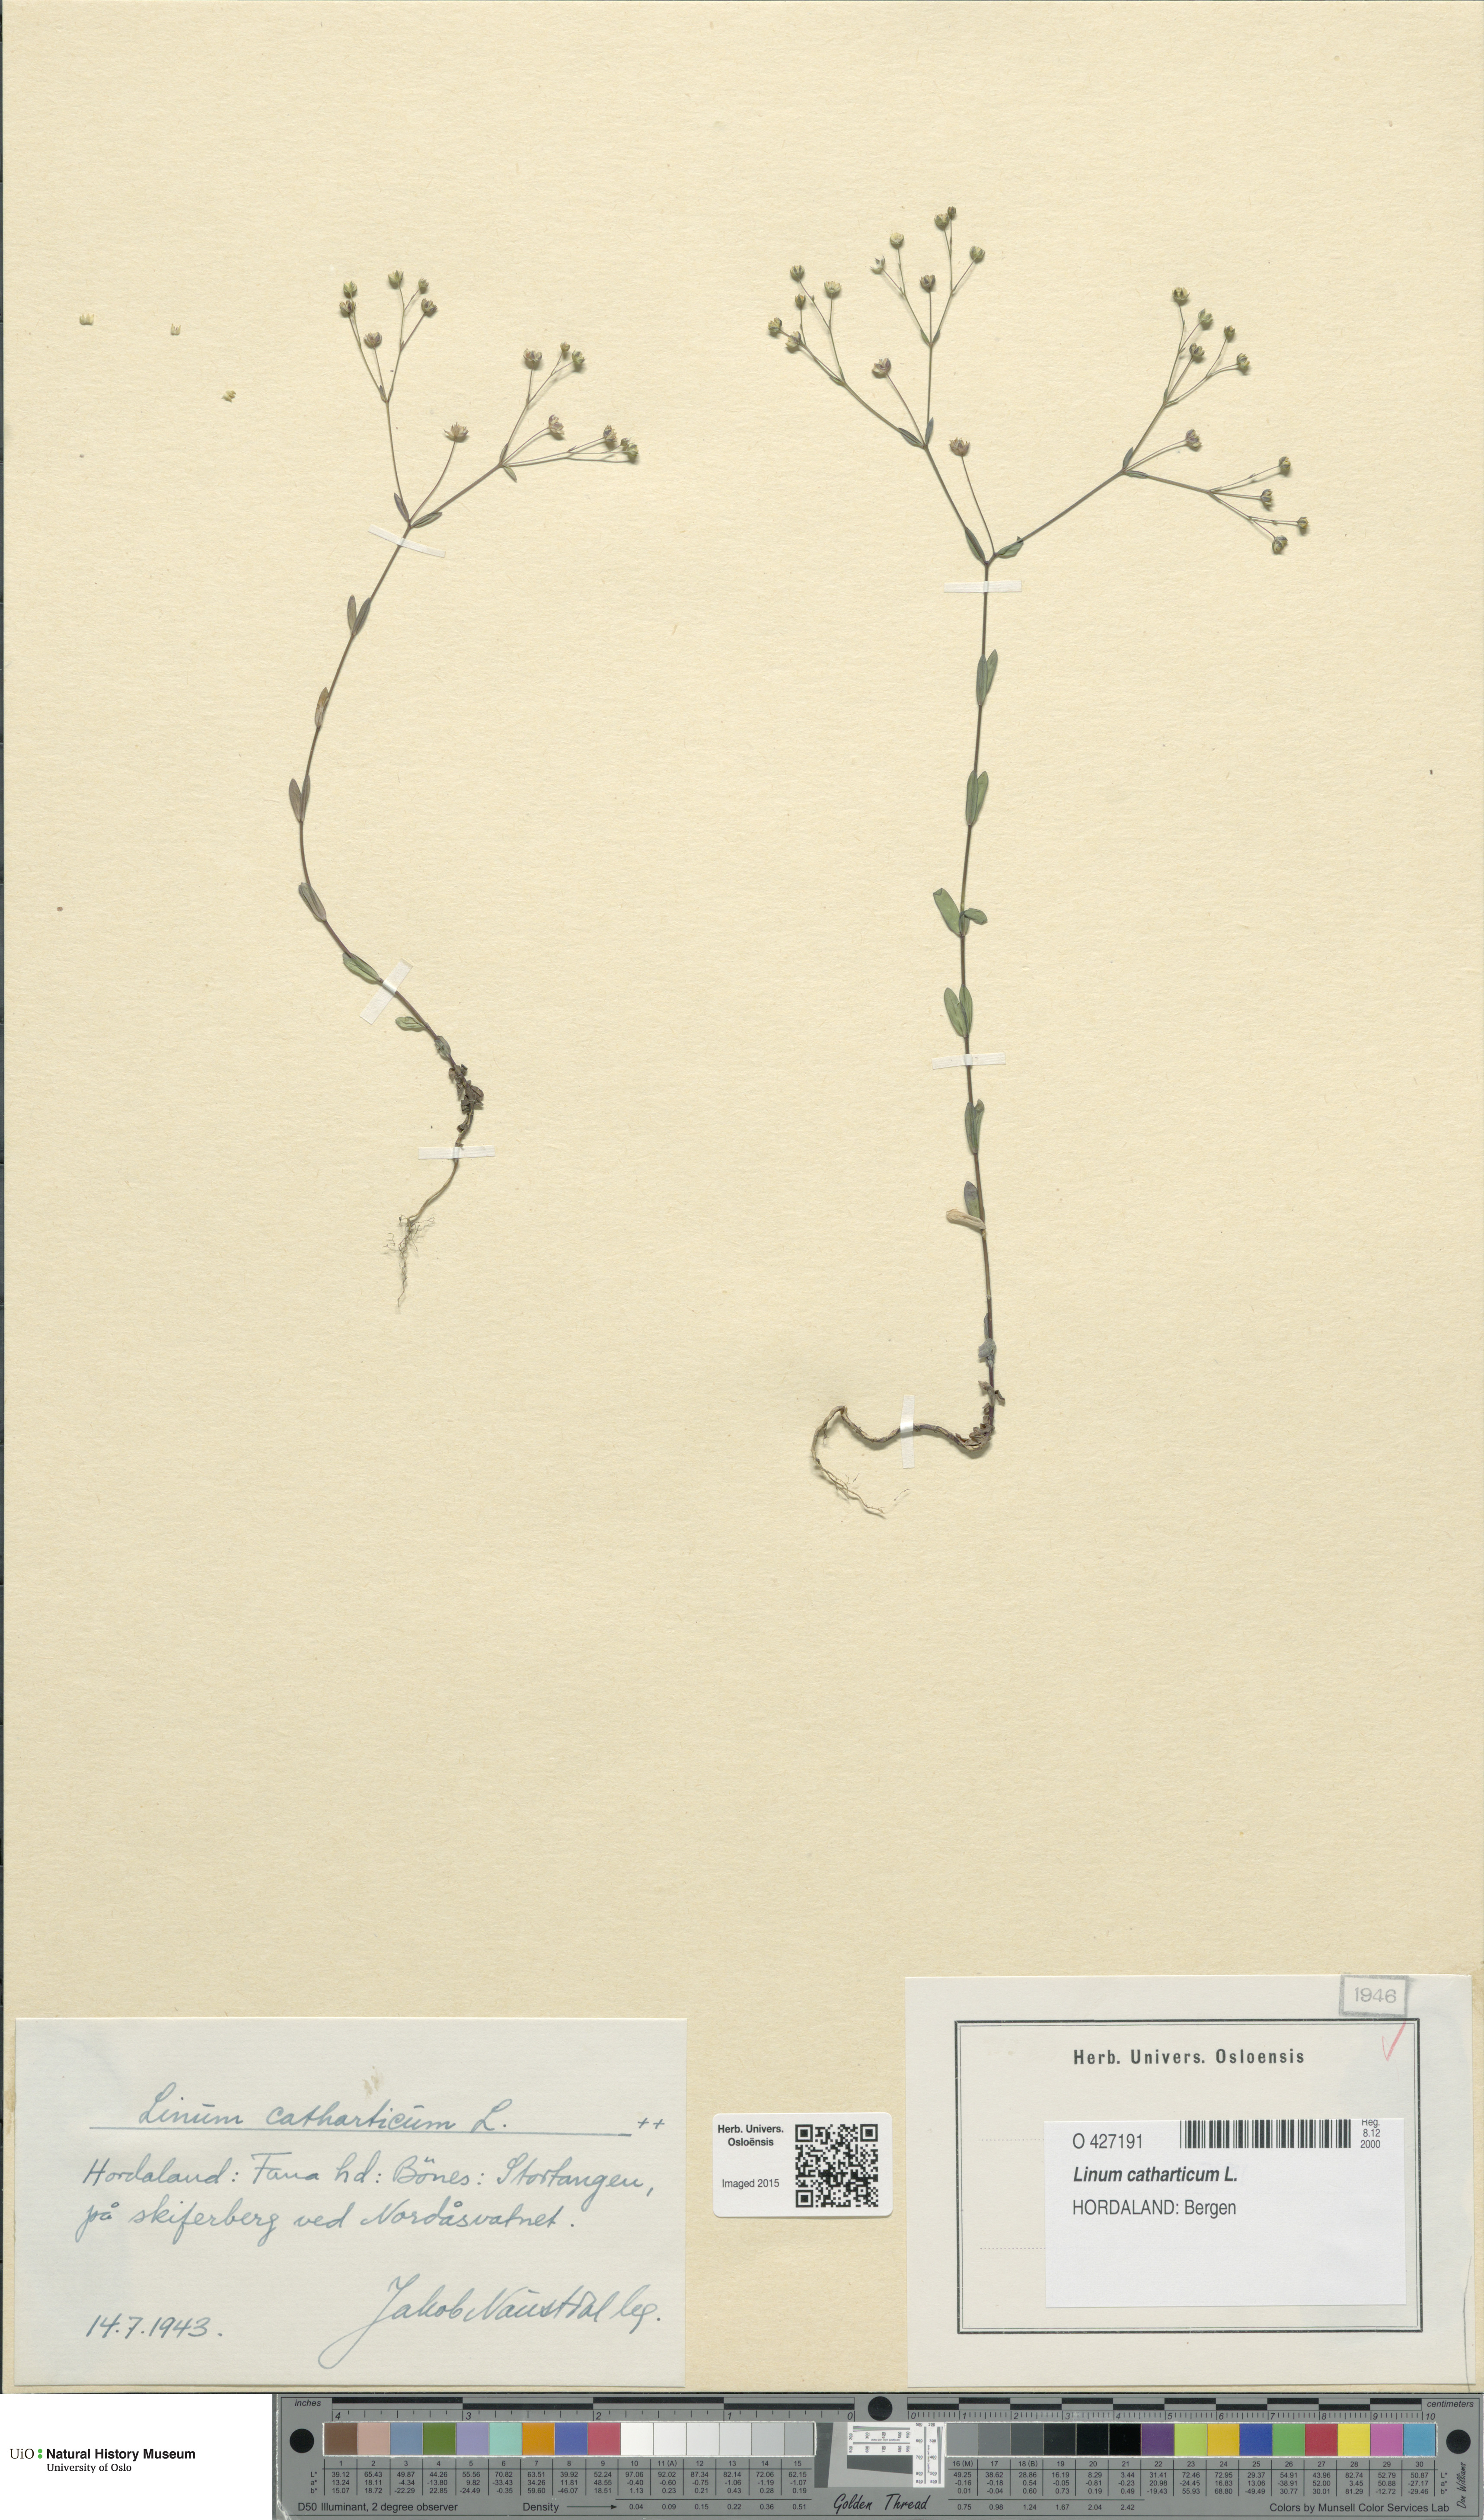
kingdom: Plantae
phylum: Tracheophyta
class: Magnoliopsida
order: Malpighiales
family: Linaceae
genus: Linum
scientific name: Linum catharticum
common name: Fairy flax
